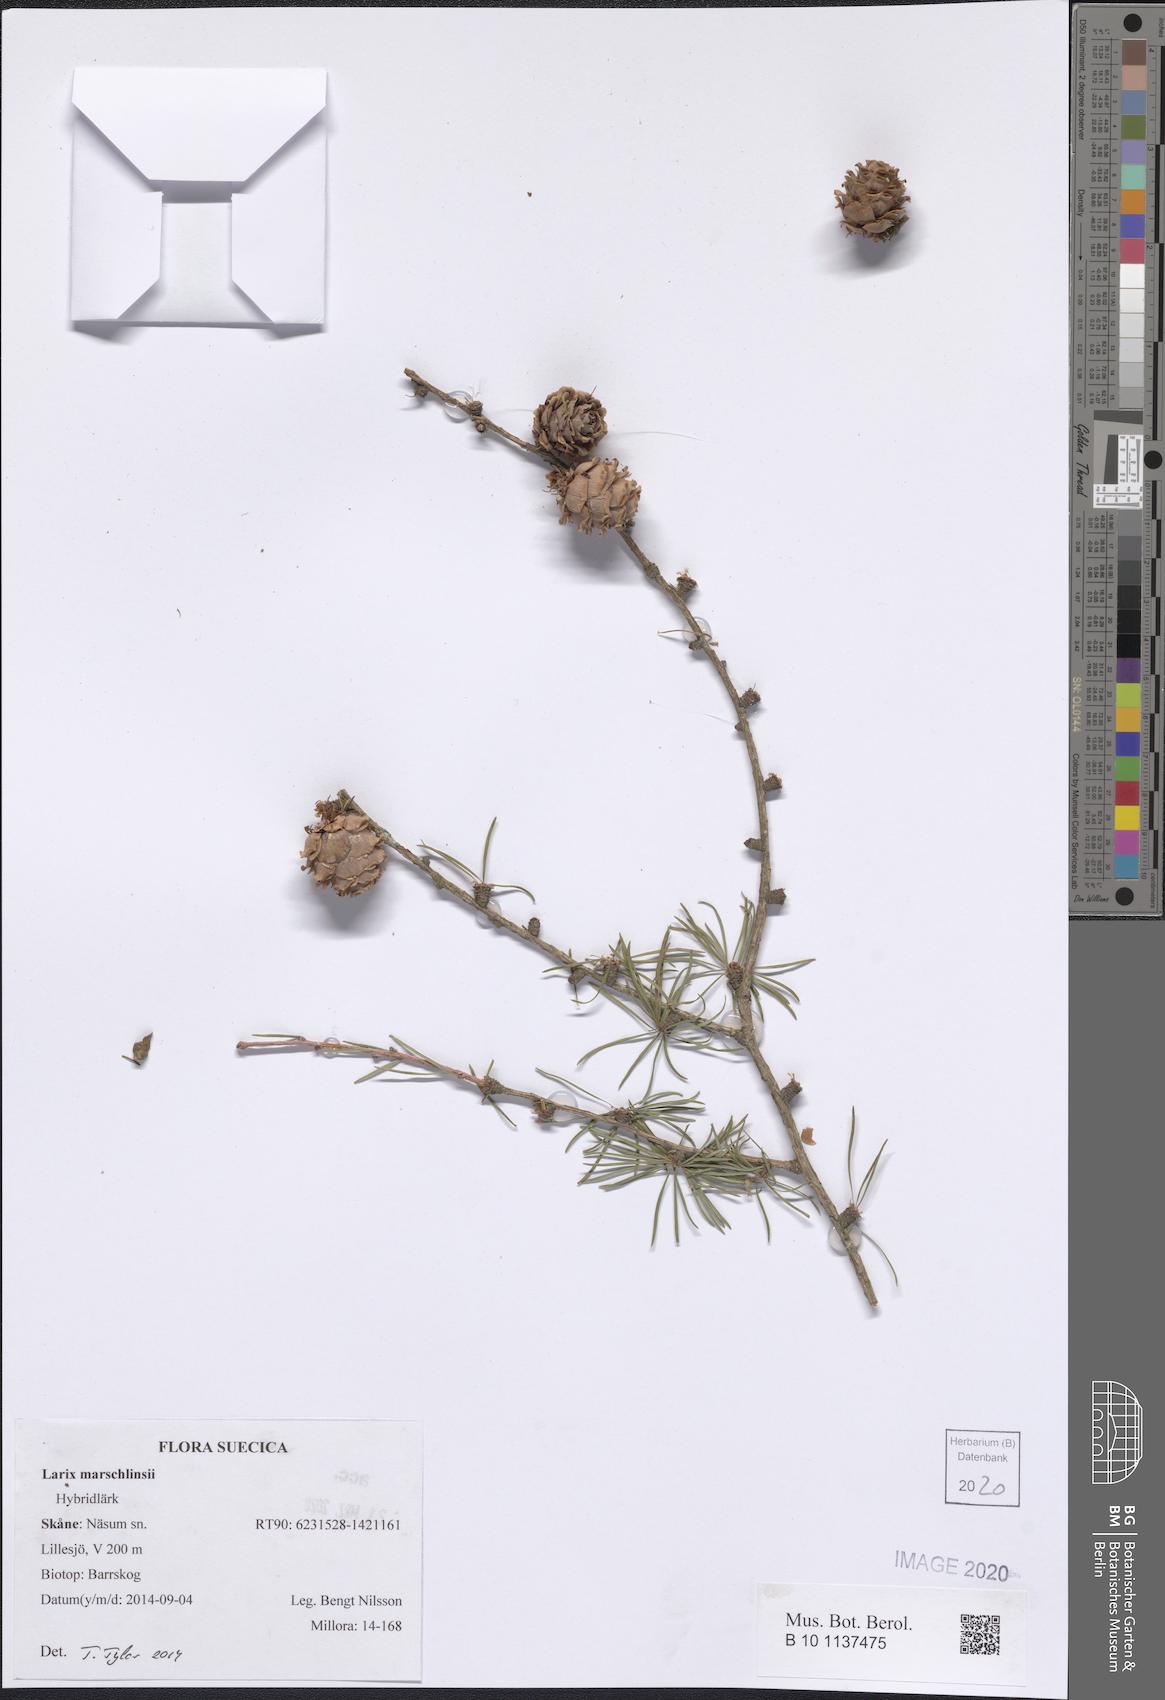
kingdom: Plantae
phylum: Tracheophyta
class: Pinopsida
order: Pinales
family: Pinaceae
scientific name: Pinaceae
